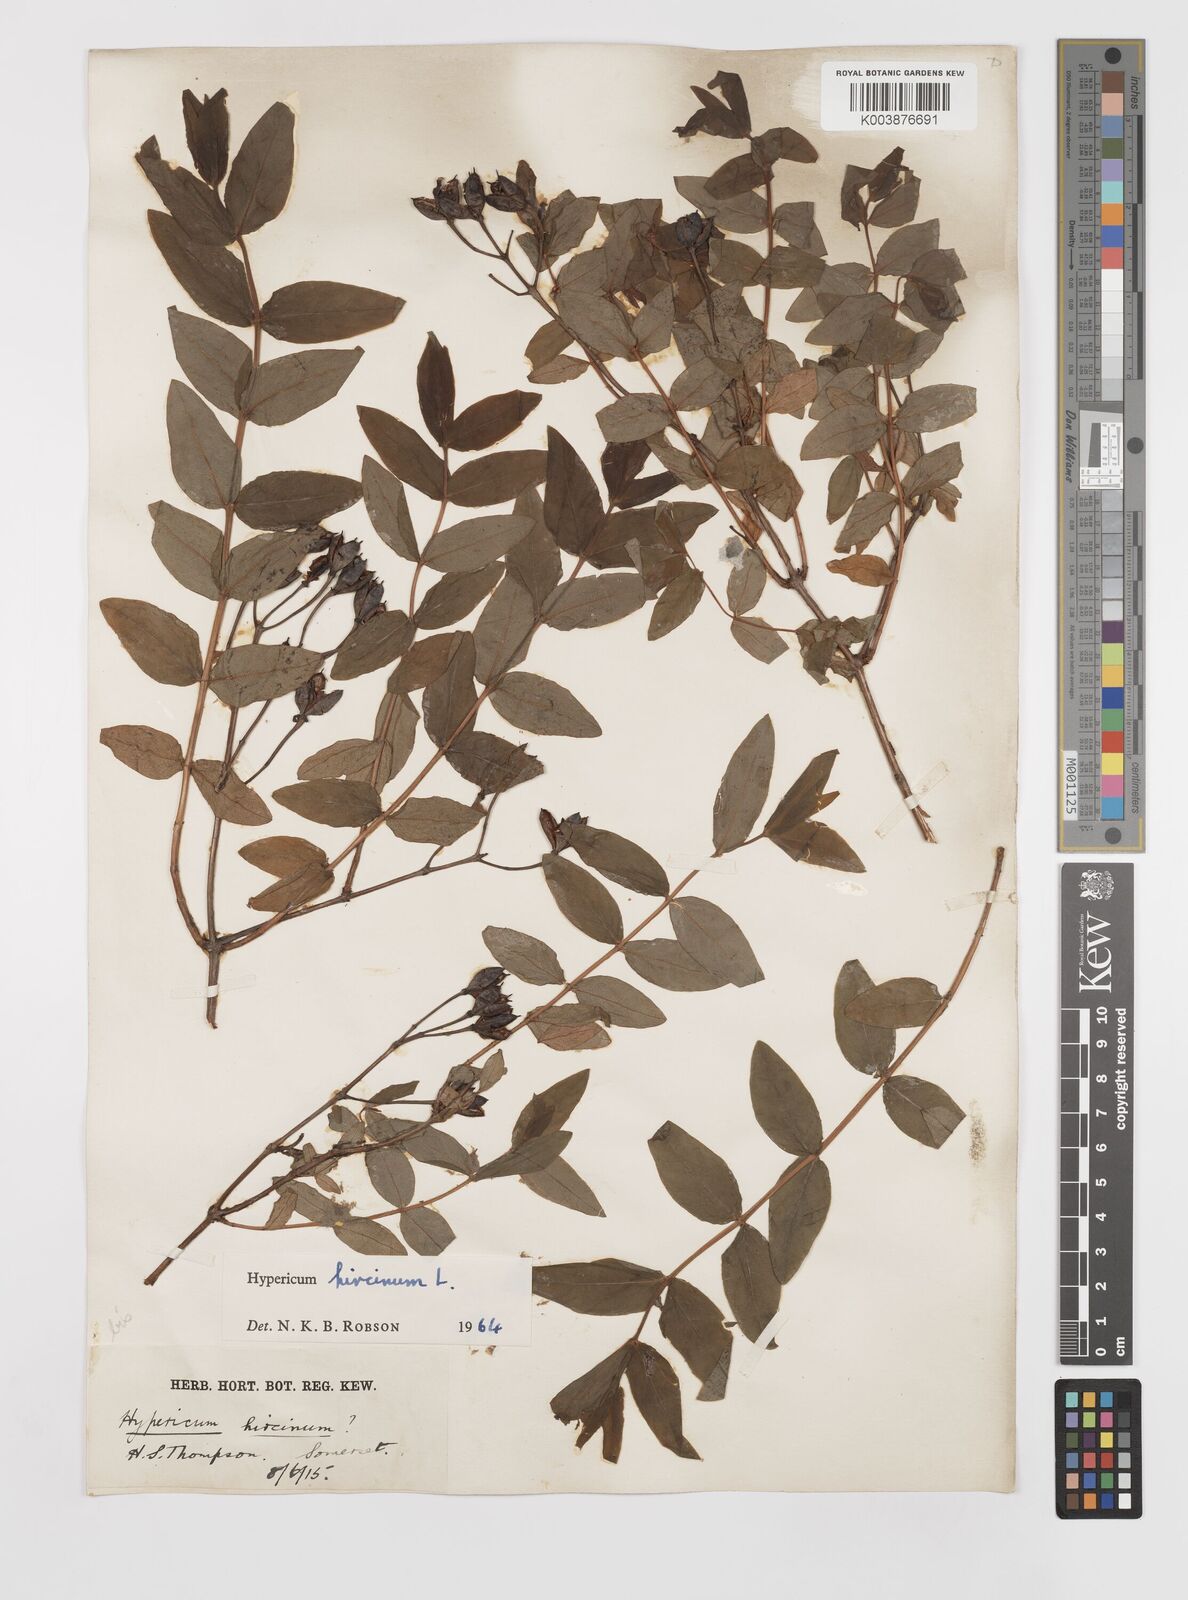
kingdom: Plantae
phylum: Tracheophyta
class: Magnoliopsida
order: Malpighiales
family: Hypericaceae
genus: Hypericum
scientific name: Hypericum hircinum
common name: Stinking tutsan
